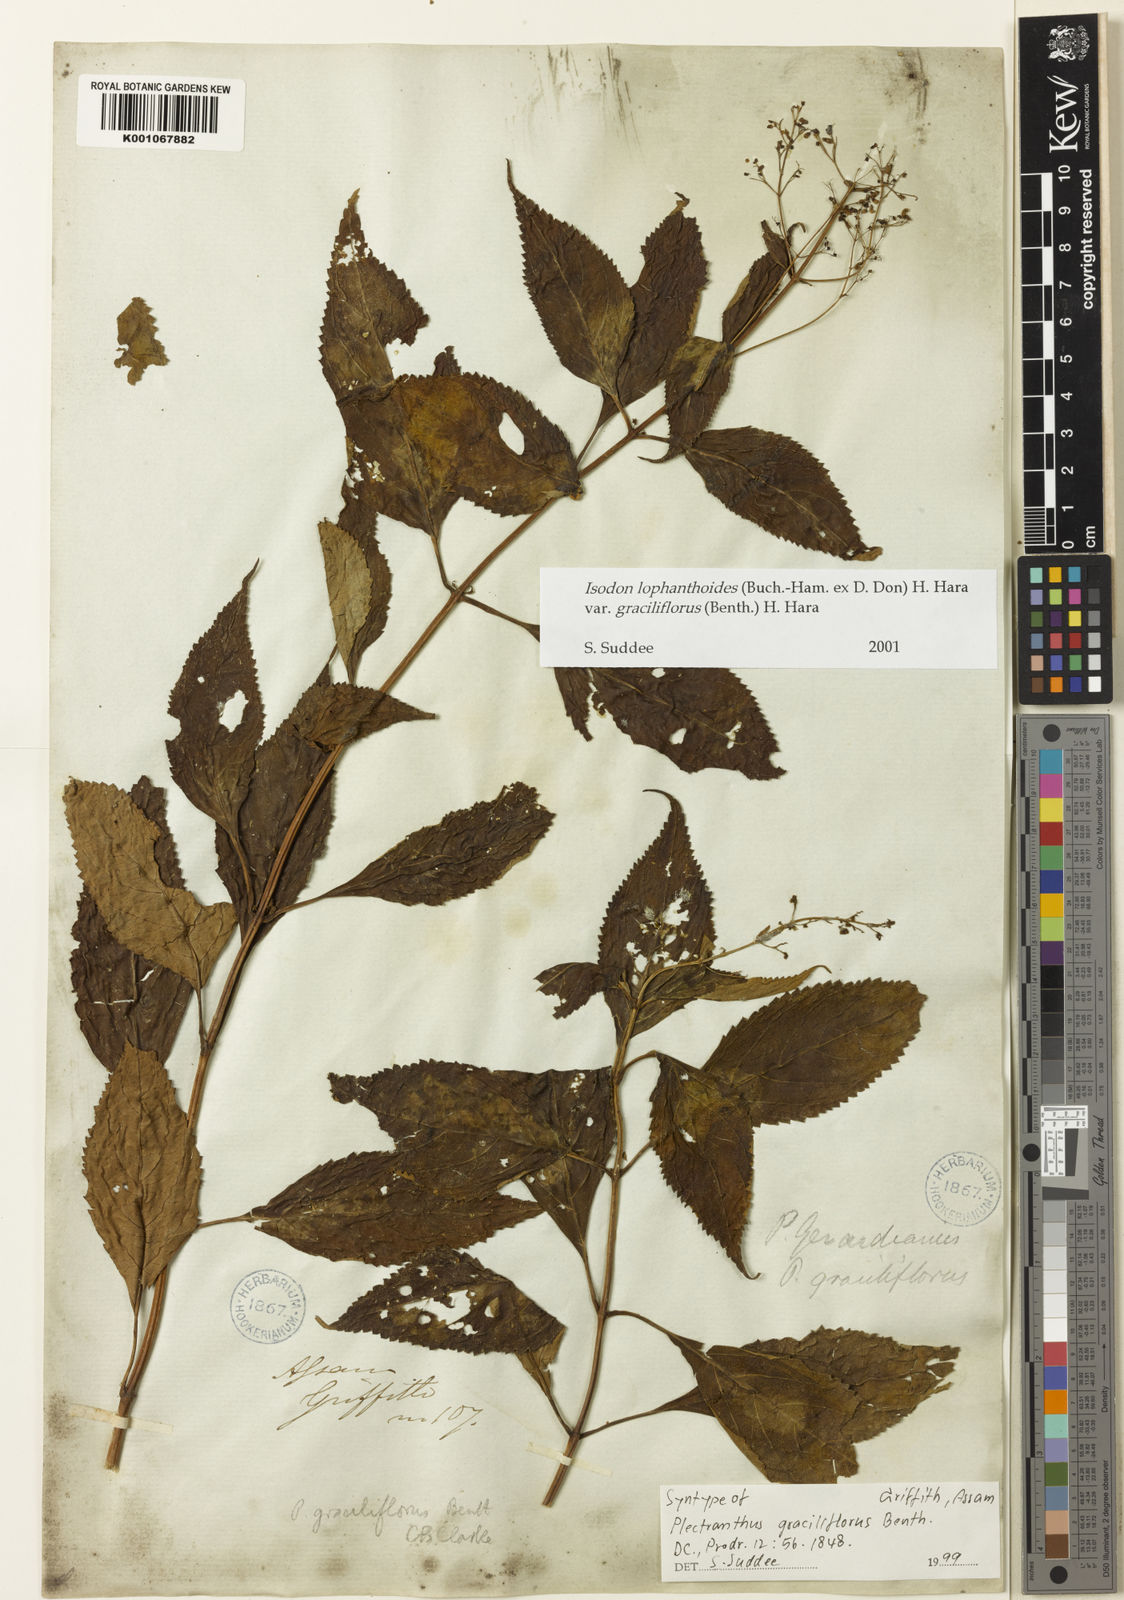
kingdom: Plantae
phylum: Tracheophyta
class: Magnoliopsida
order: Lamiales
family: Lamiaceae
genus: Isodon
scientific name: Isodon lophanthoides
